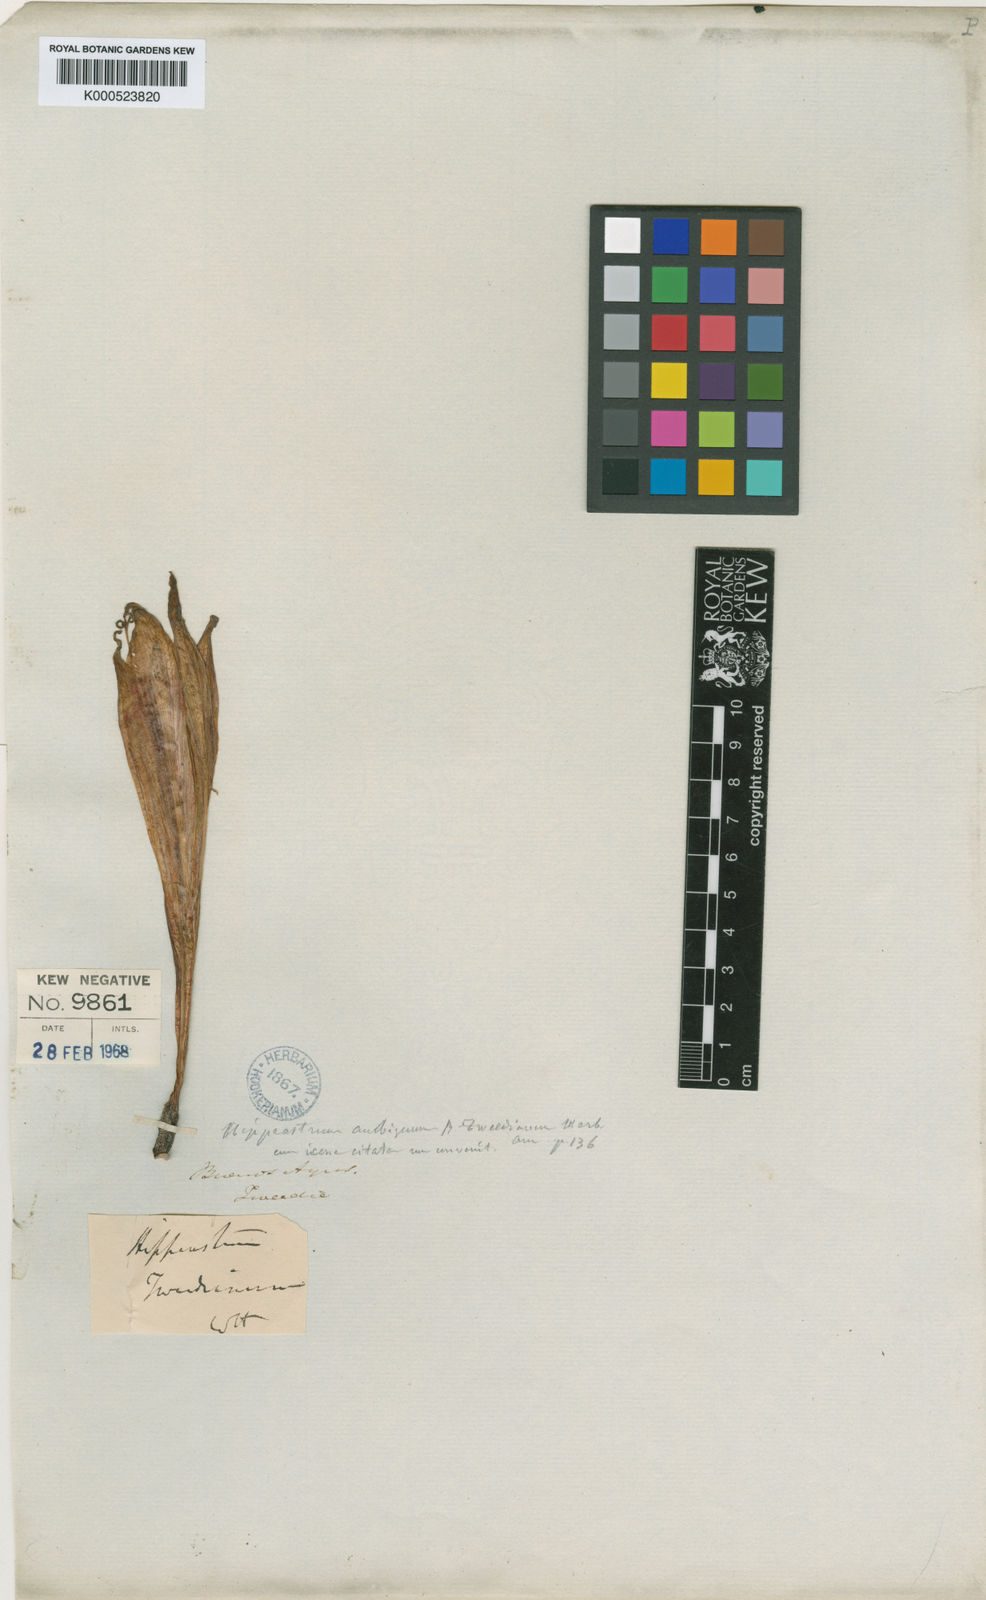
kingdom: Plantae
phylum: Tracheophyta
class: Liliopsida
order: Asparagales
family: Amaryllidaceae
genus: Hippeastrum
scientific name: Hippeastrum vittatum
